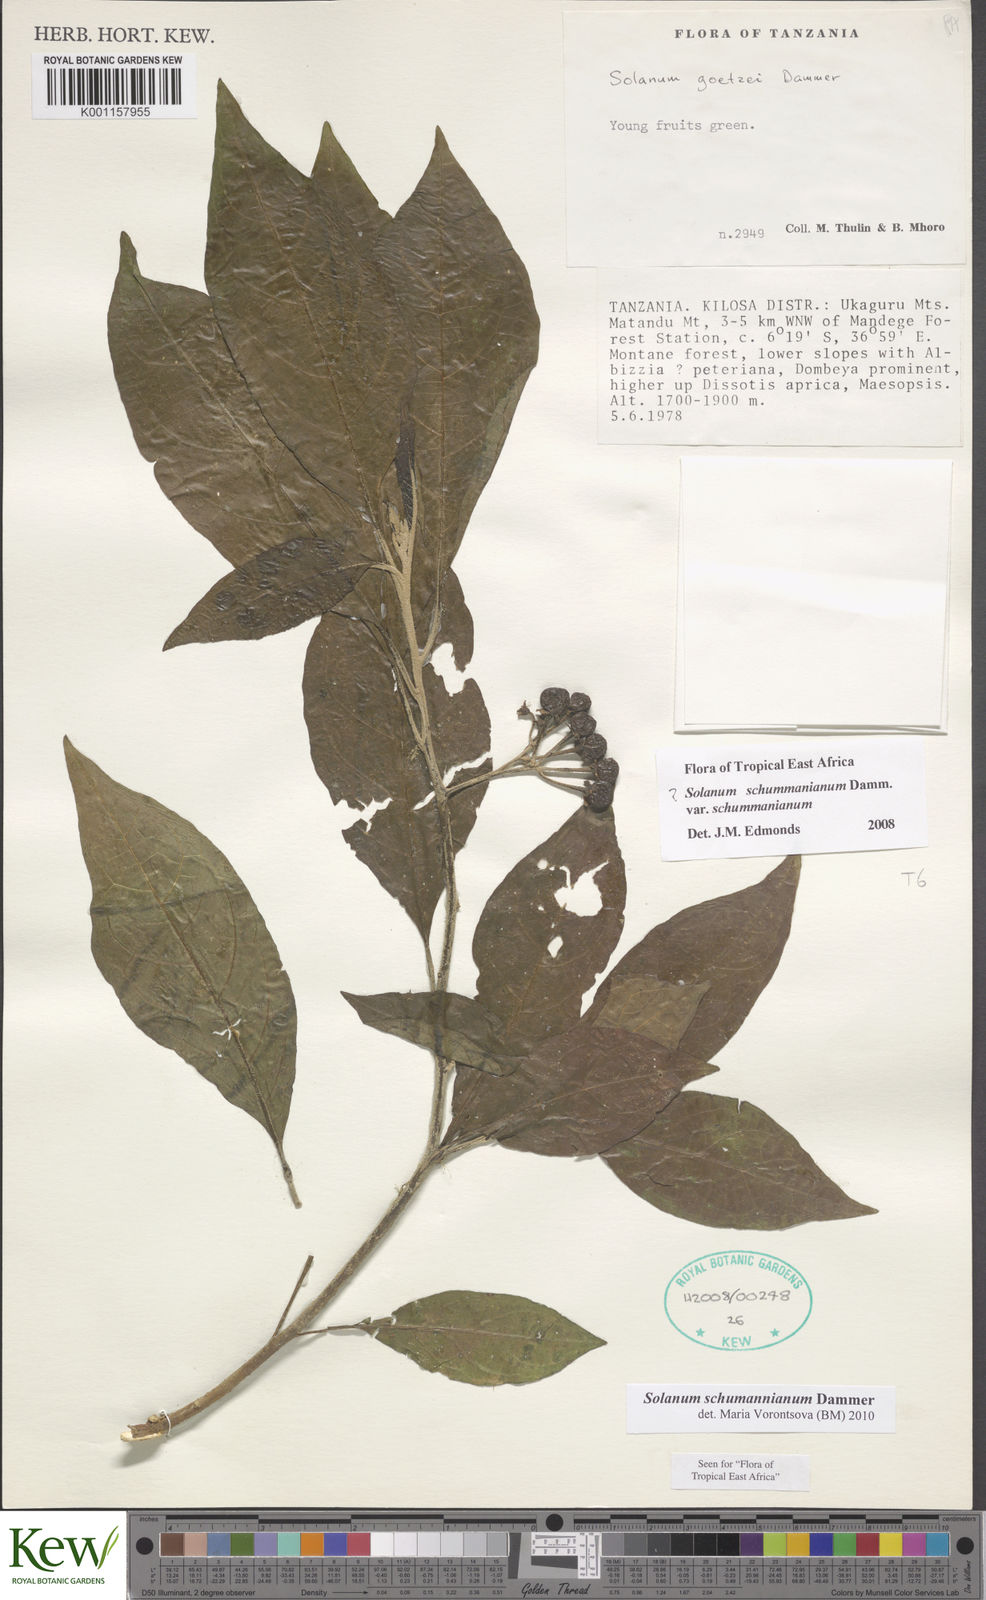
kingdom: Plantae
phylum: Tracheophyta
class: Magnoliopsida
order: Solanales
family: Solanaceae
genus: Solanum
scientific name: Solanum schumannianum
